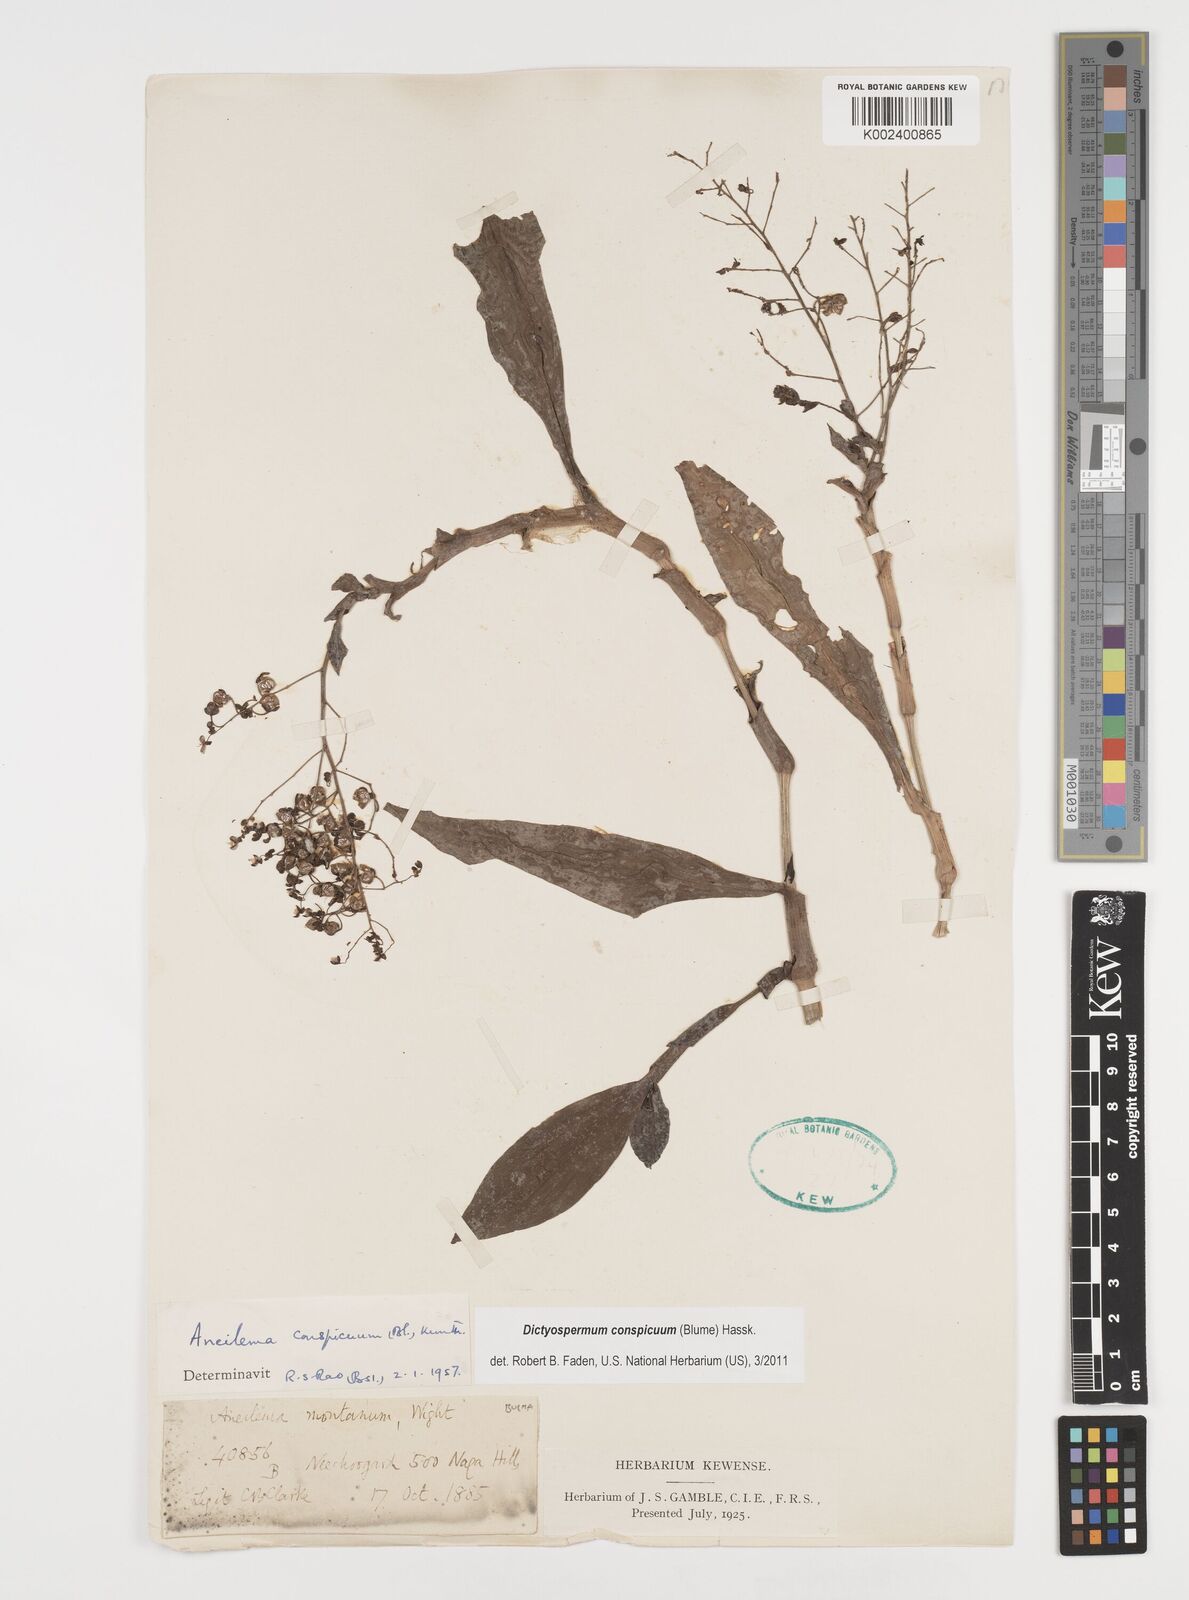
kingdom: Plantae
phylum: Tracheophyta
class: Liliopsida
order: Commelinales
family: Commelinaceae
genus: Dictyospermum
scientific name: Dictyospermum conspicuum
